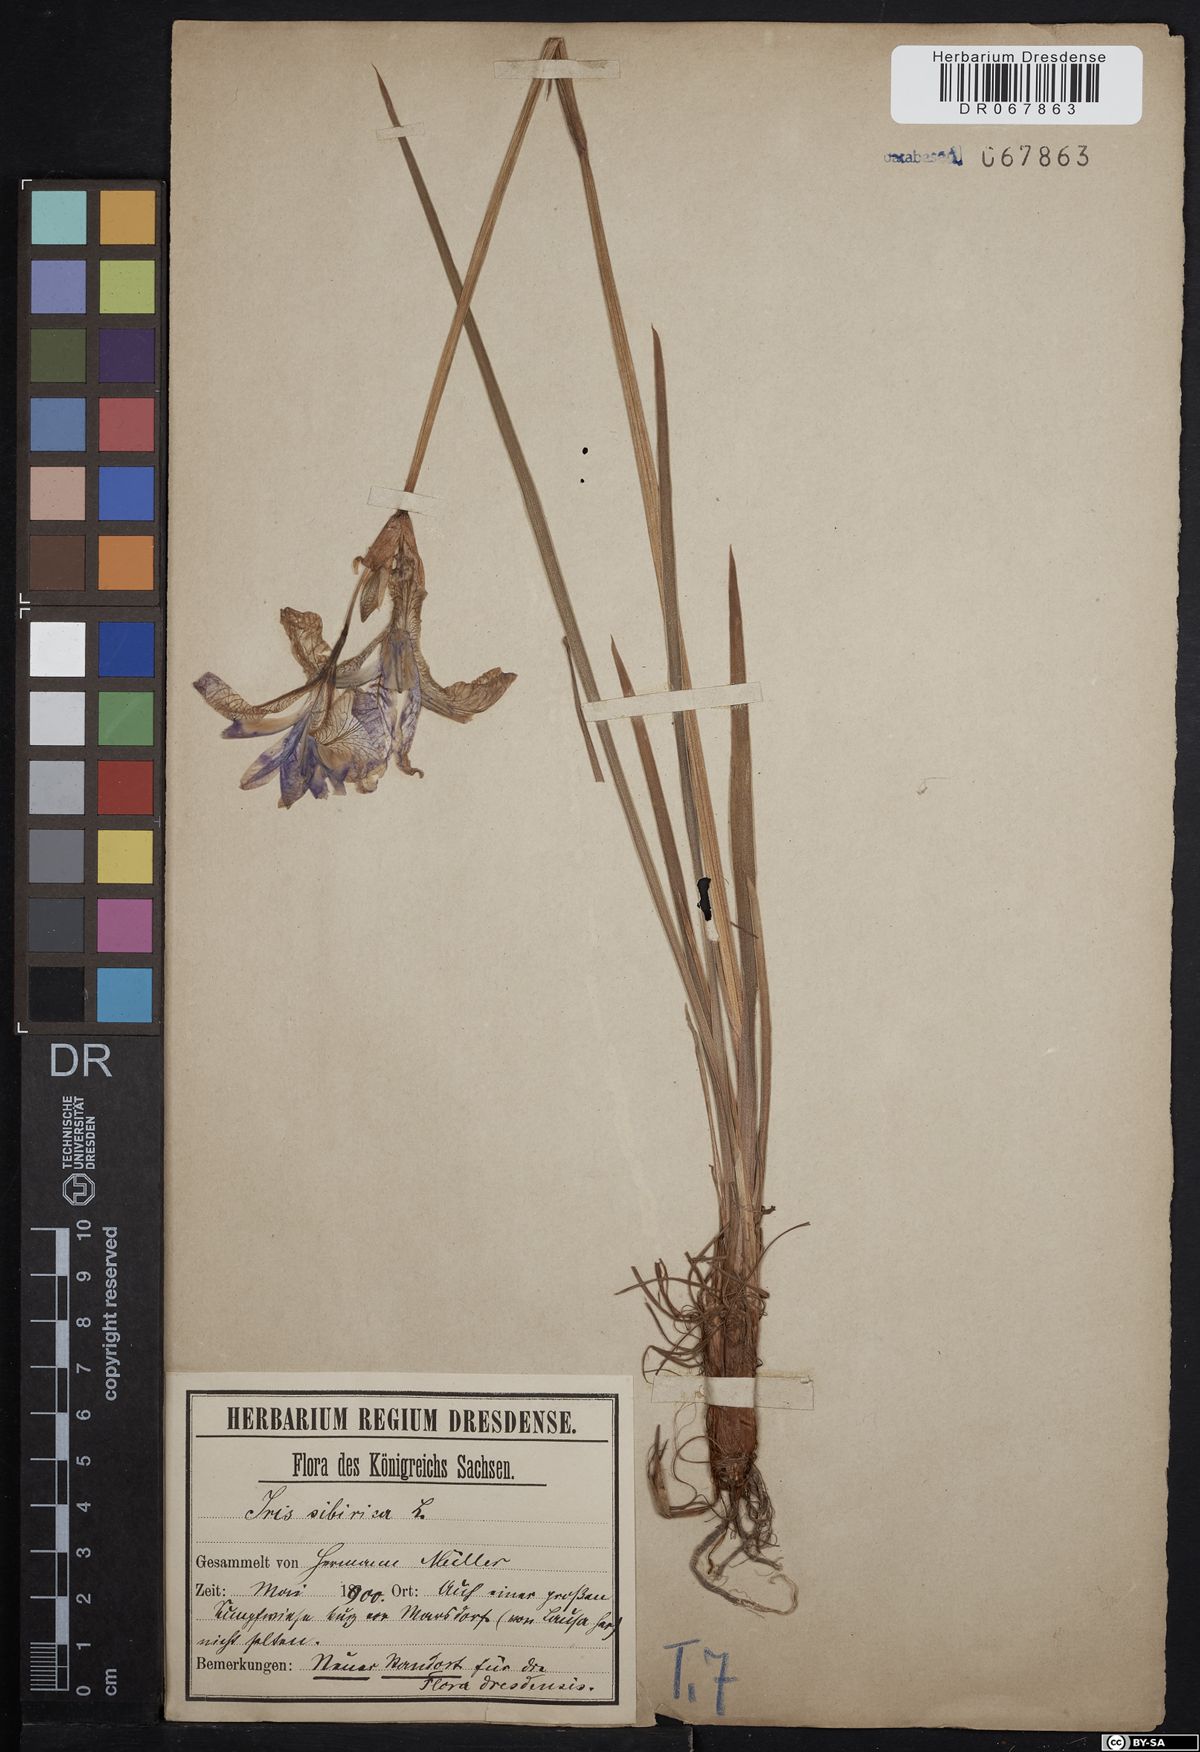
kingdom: Plantae
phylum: Tracheophyta
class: Liliopsida
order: Asparagales
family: Iridaceae
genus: Iris
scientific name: Iris sibirica
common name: Siberian iris
